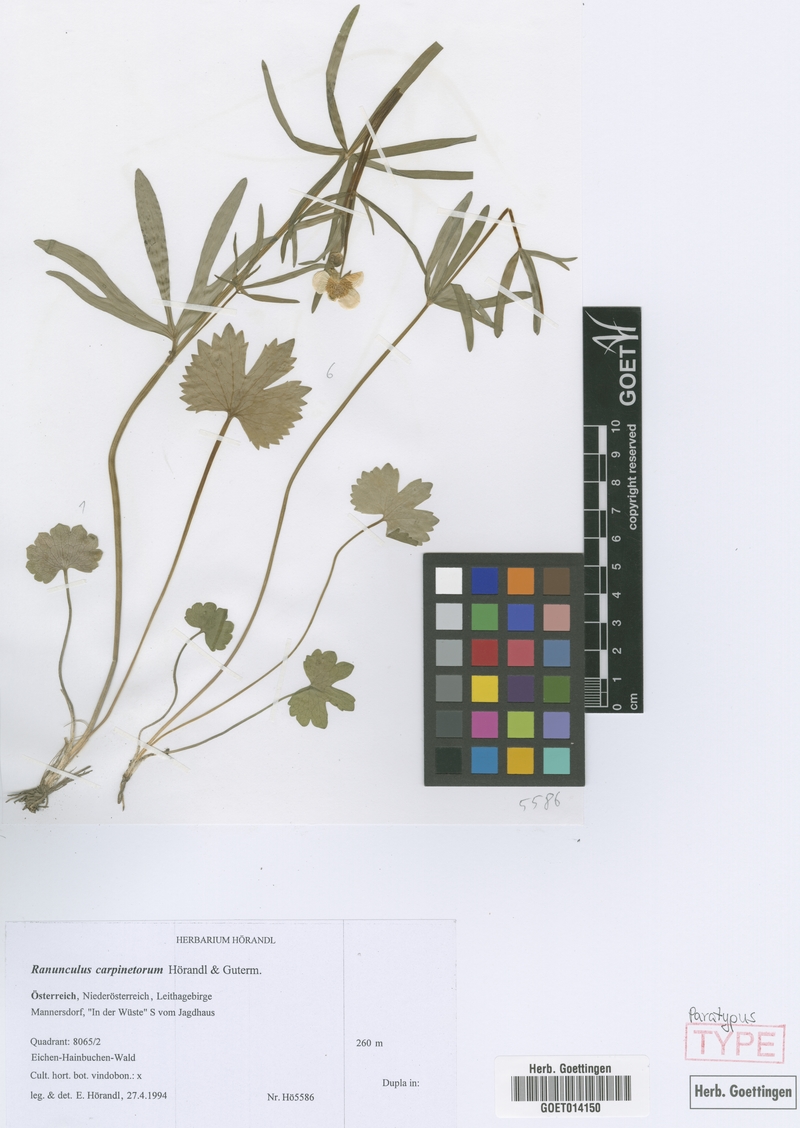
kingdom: Plantae
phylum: Tracheophyta
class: Magnoliopsida
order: Ranunculales
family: Ranunculaceae
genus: Ranunculus
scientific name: Ranunculus carpinetorum
